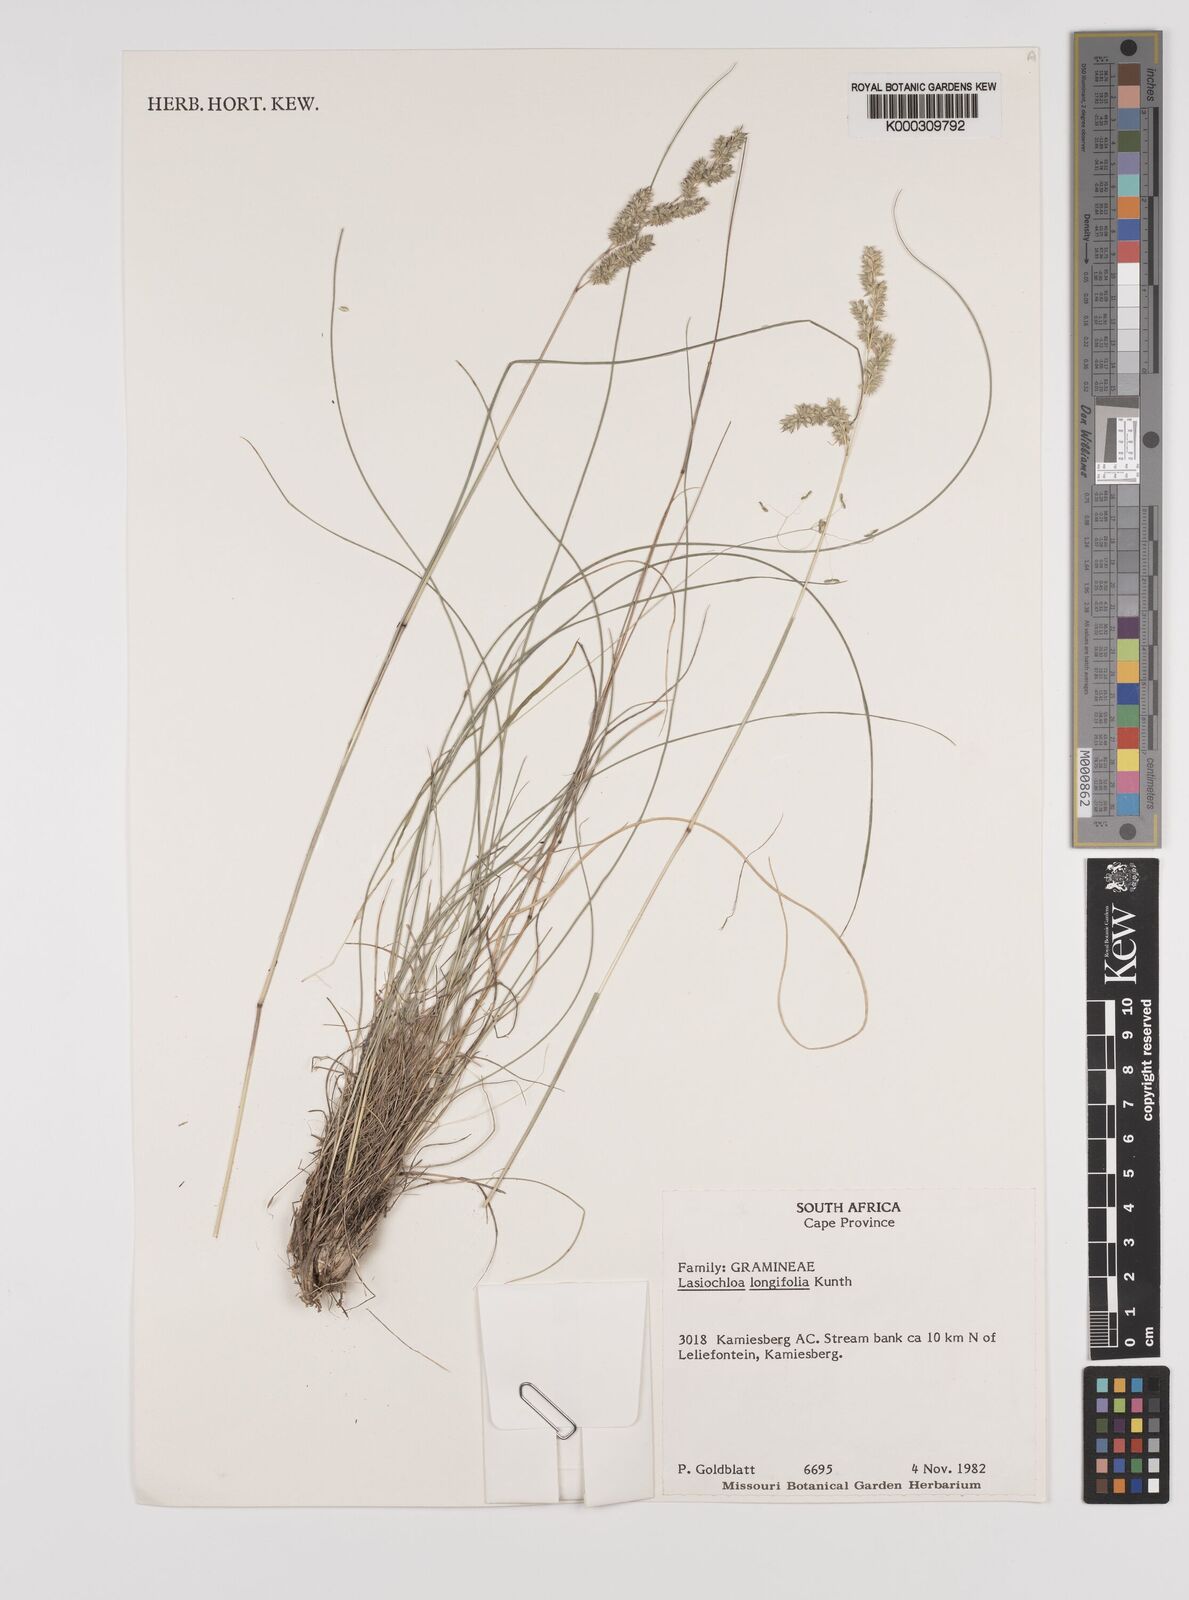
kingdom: Plantae
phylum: Tracheophyta
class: Liliopsida
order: Poales
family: Poaceae
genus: Tribolium
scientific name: Tribolium hispidum
